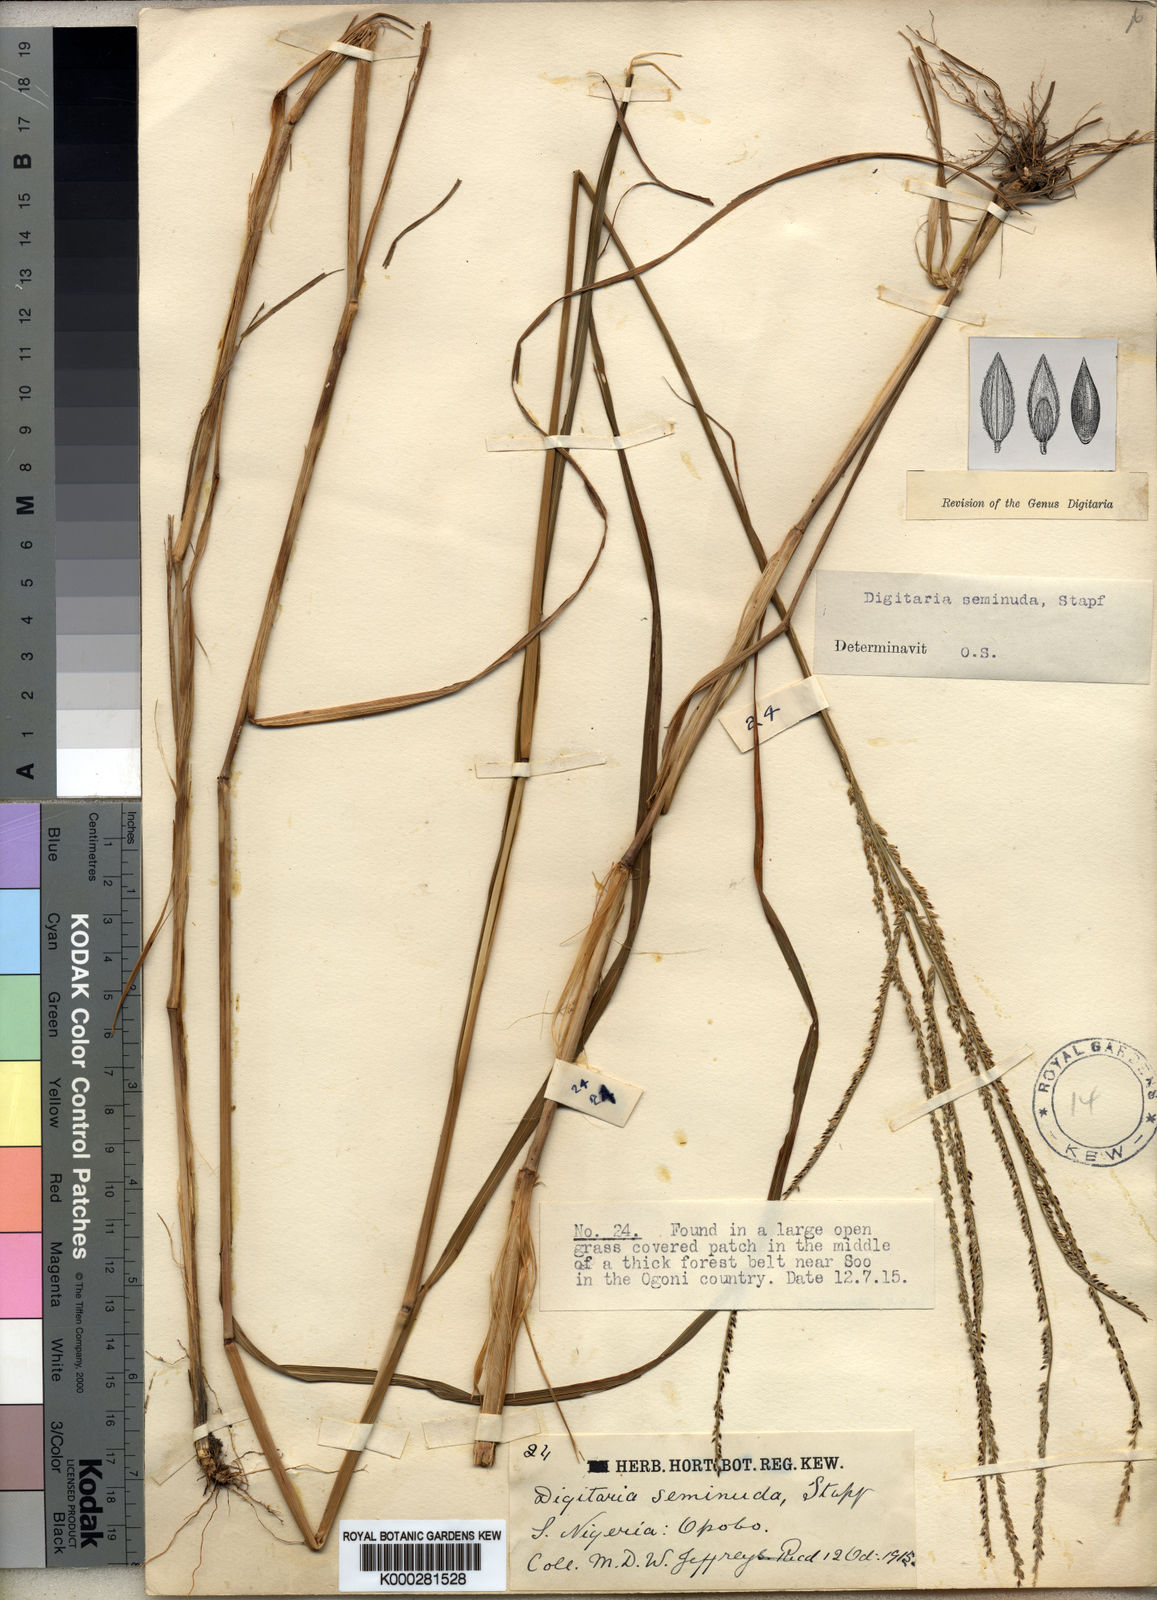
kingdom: Plantae
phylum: Tracheophyta
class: Liliopsida
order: Poales
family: Poaceae
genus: Digitaria
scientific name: Digitaria atrofusca
